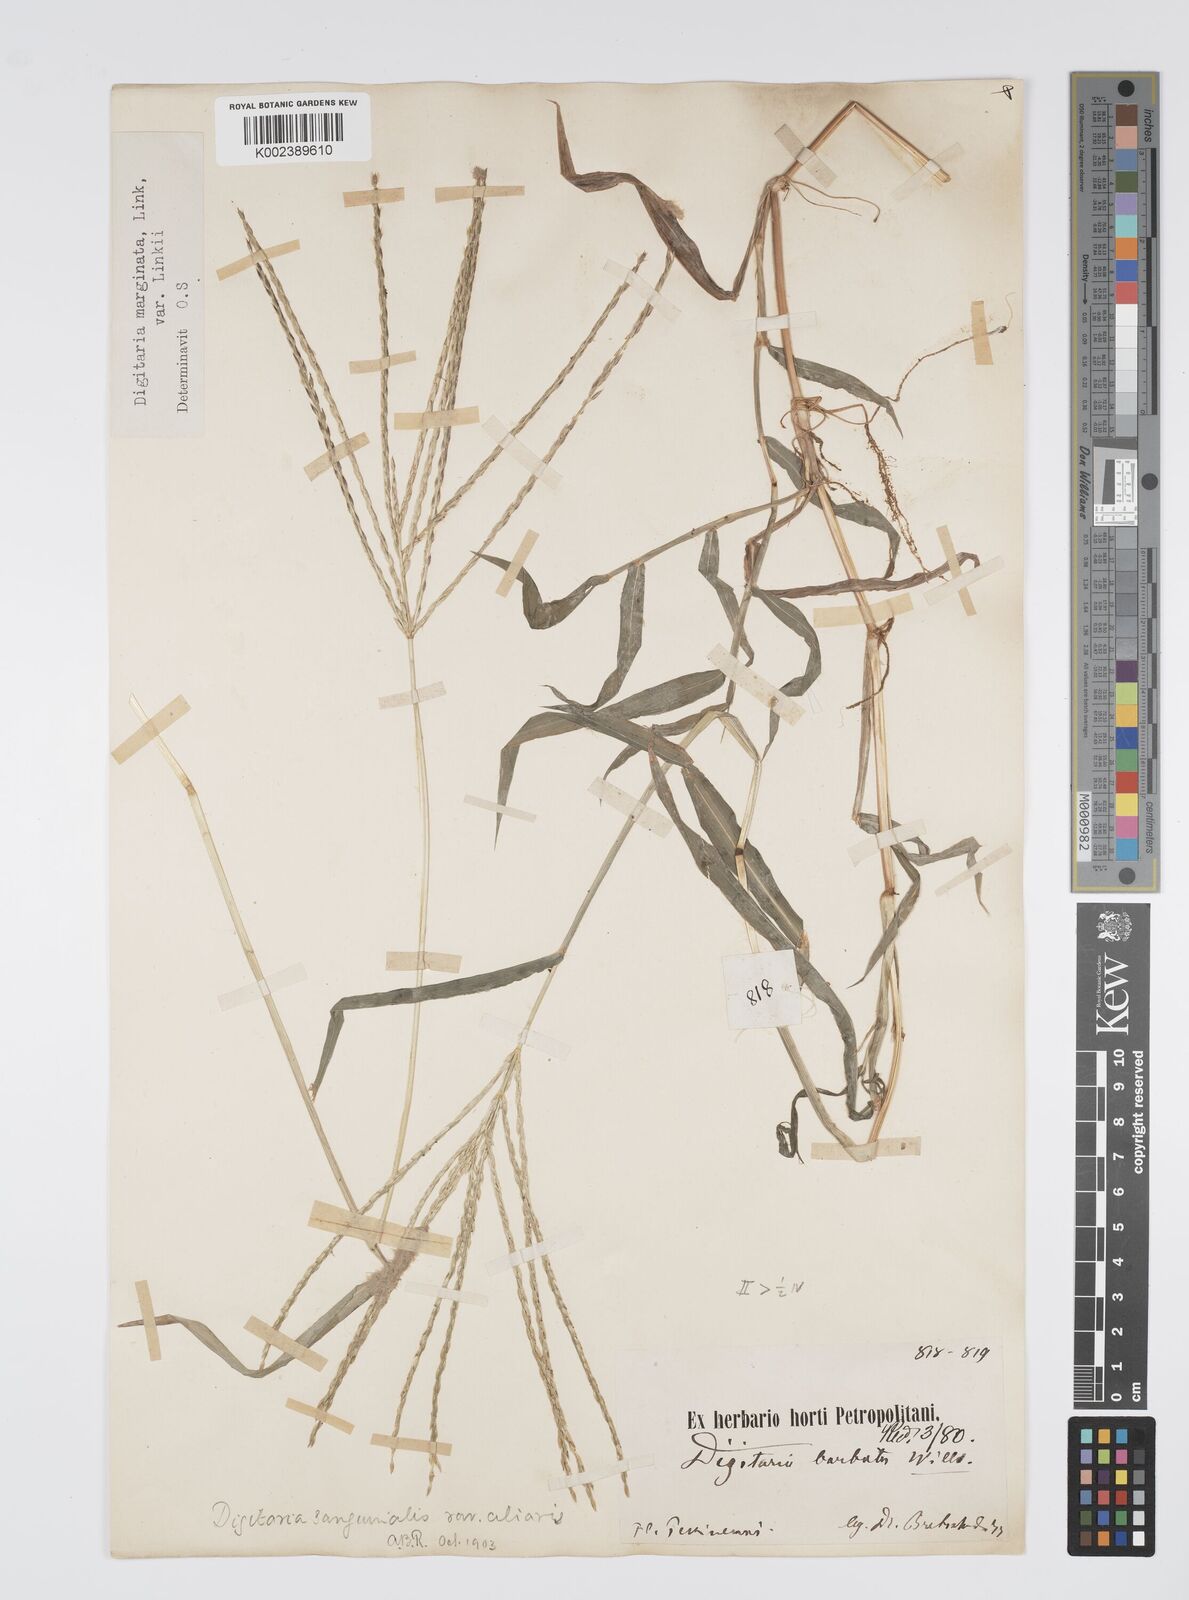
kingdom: Plantae
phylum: Tracheophyta
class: Liliopsida
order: Poales
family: Poaceae
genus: Digitaria
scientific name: Digitaria ciliaris
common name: Tropical finger-grass
